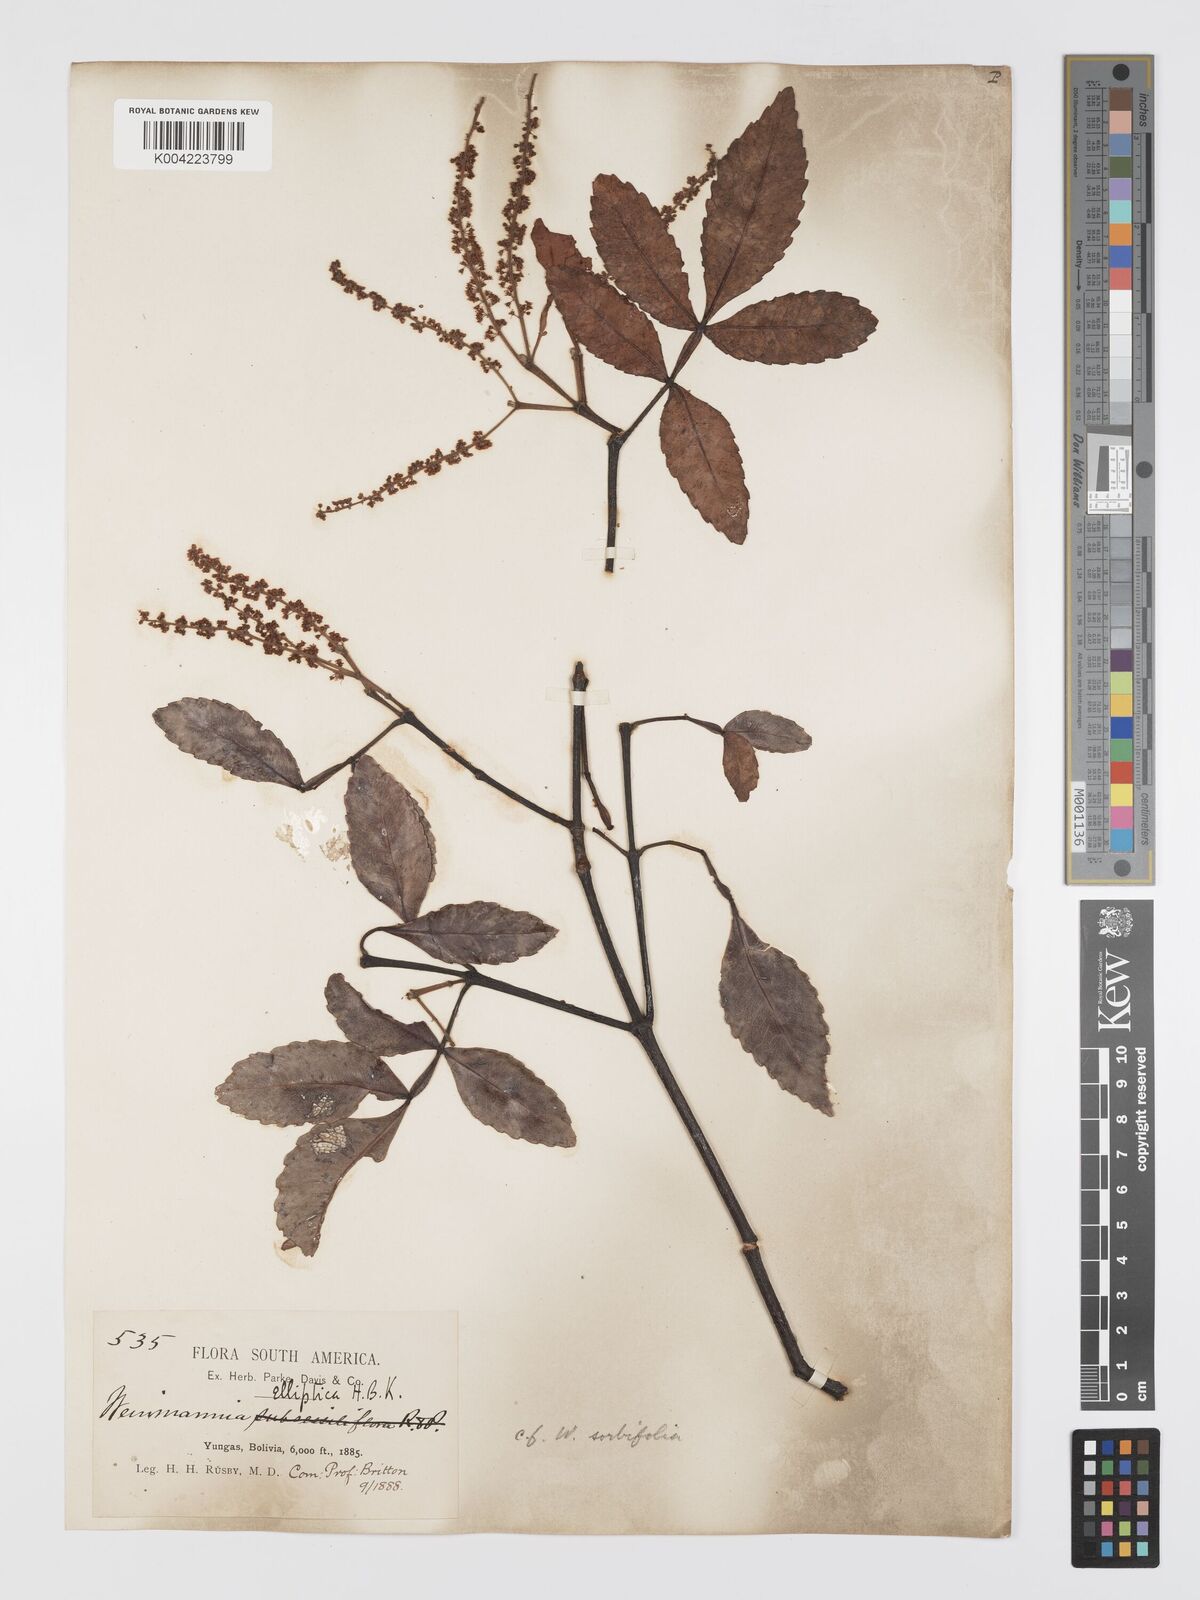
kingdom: Plantae
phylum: Tracheophyta
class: Magnoliopsida
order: Oxalidales
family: Cunoniaceae
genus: Weinmannia
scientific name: Weinmannia boliviensis
